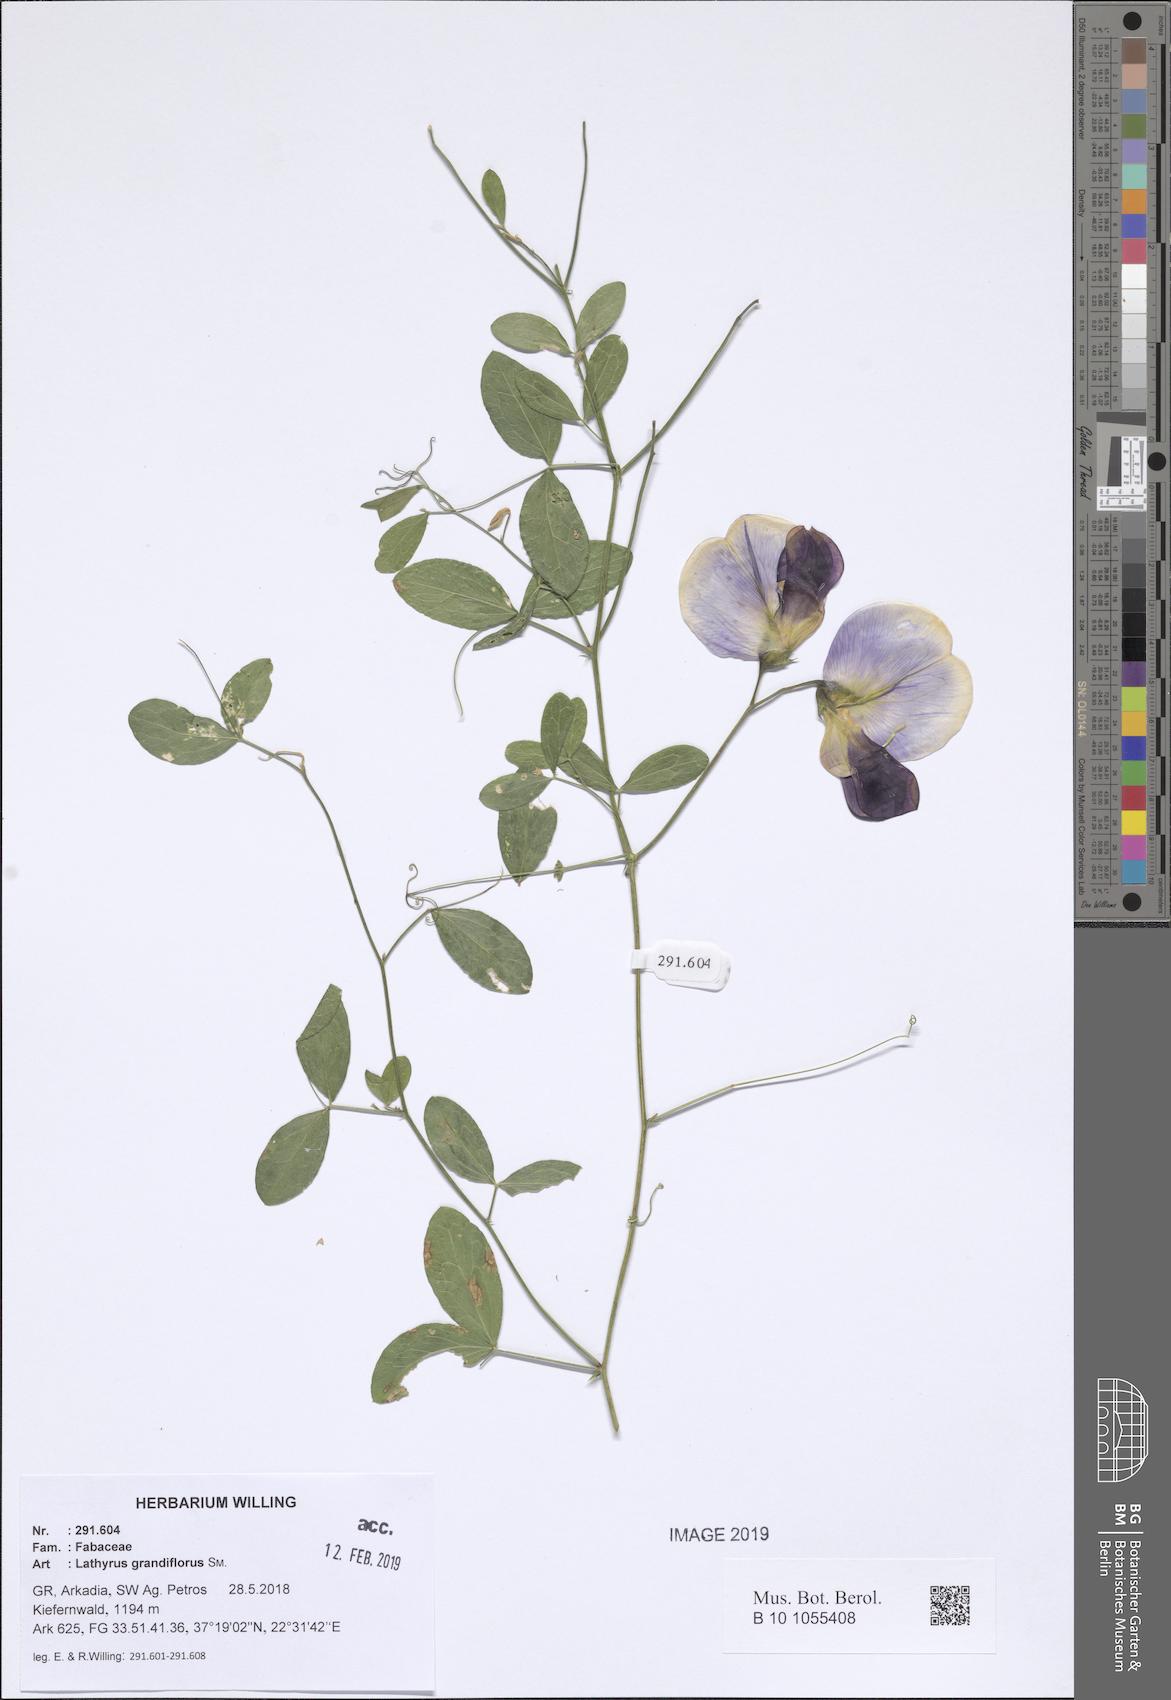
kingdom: Plantae
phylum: Tracheophyta
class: Magnoliopsida
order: Fabales
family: Fabaceae
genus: Lathyrus
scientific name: Lathyrus grandiflorus
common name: Two-flowered everlasting-pea
